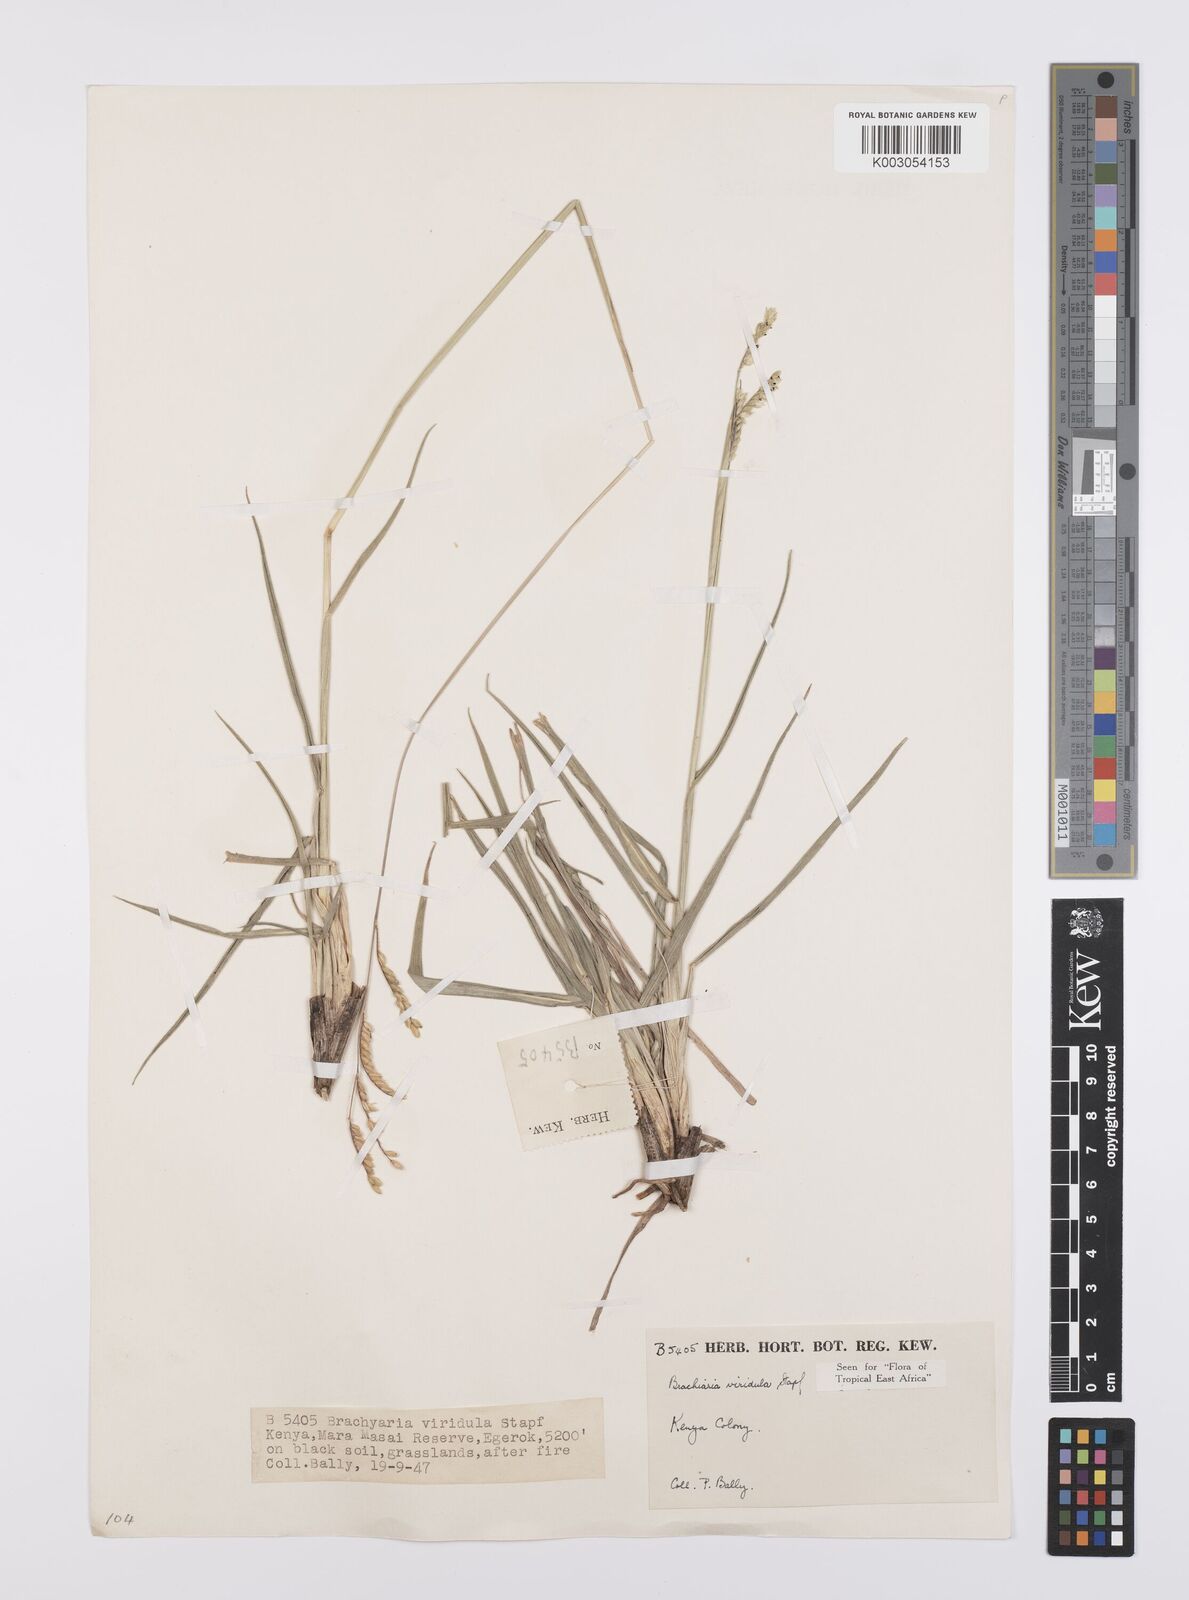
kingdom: Plantae
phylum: Tracheophyta
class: Liliopsida
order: Poales
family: Poaceae
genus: Urochloa
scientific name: Urochloa bovonei
